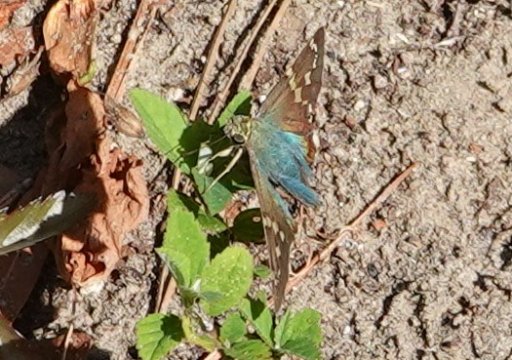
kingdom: Animalia
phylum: Arthropoda
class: Insecta
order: Lepidoptera
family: Hesperiidae
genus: Urbanus
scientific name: Urbanus proteus
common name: Long-tailed Skipper
